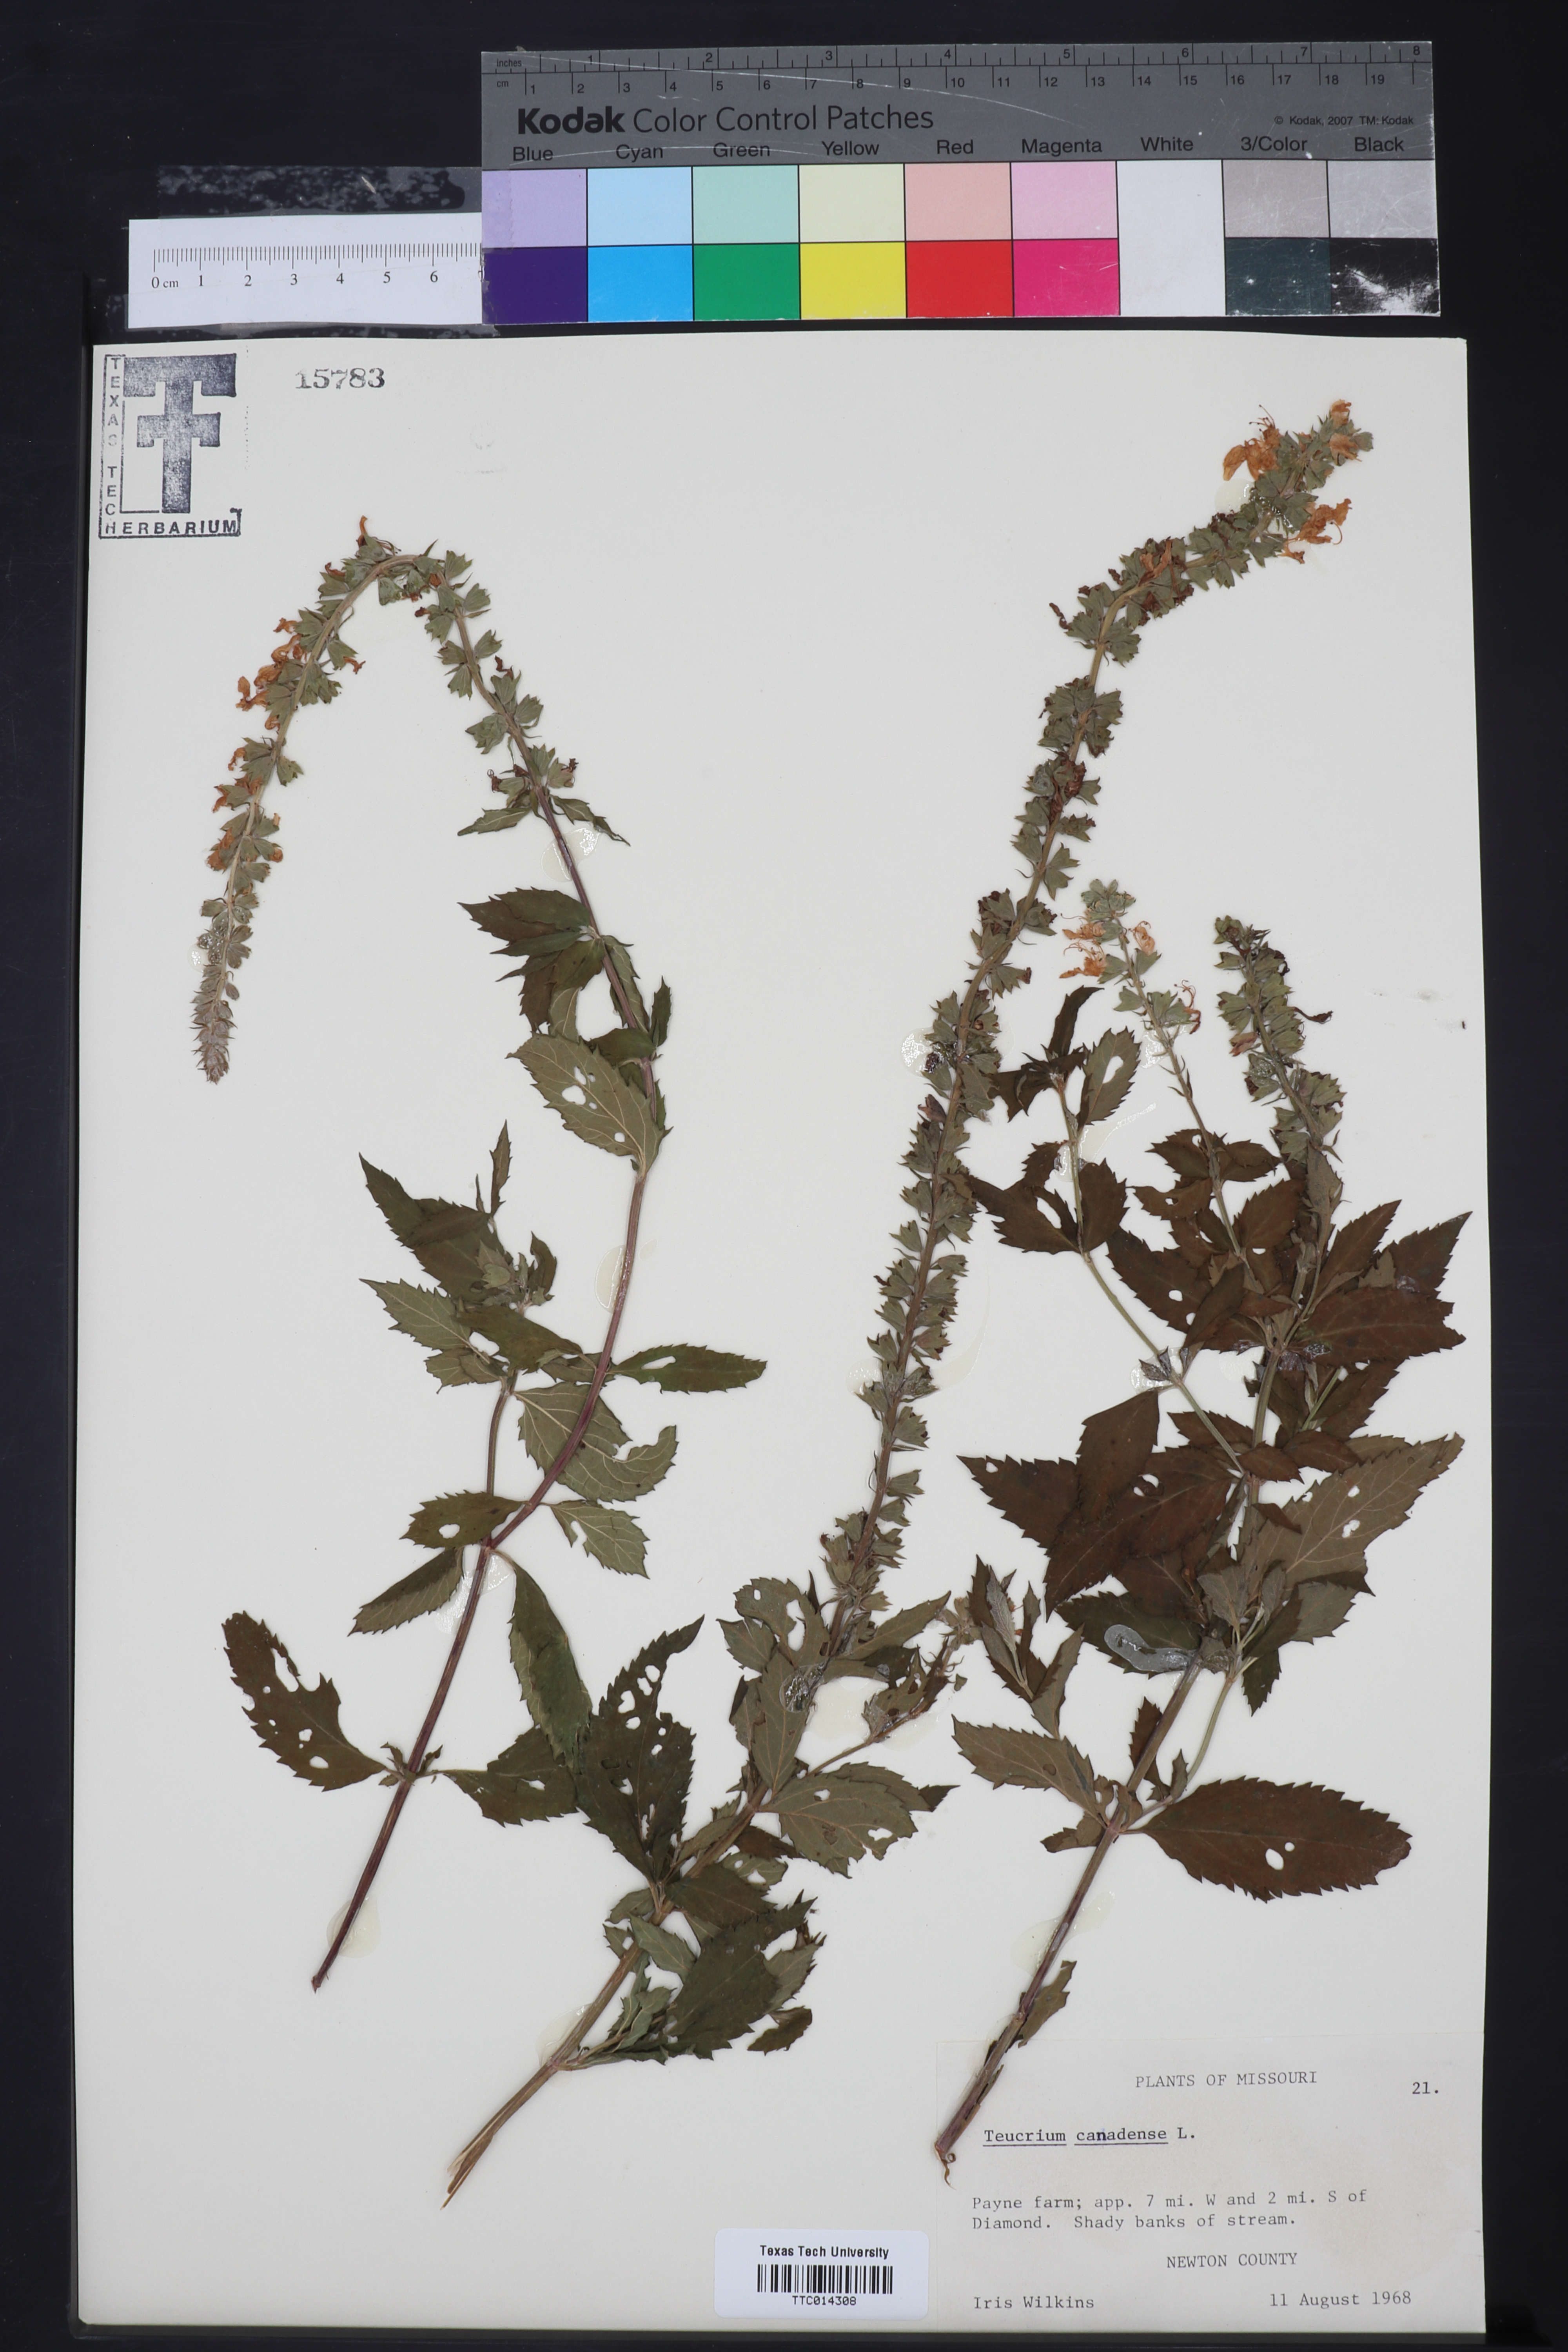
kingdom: Plantae
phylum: Tracheophyta
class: Magnoliopsida
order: Lamiales
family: Lamiaceae
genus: Teucrium
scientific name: Teucrium canadense
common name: American germander
